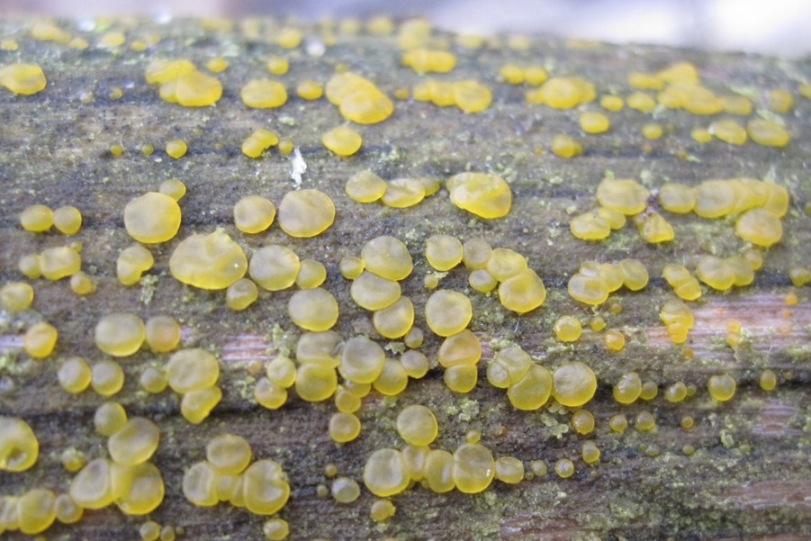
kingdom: Fungi
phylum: Basidiomycota
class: Dacrymycetes
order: Dacrymycetales
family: Dacrymycetaceae
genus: Dacrymyces
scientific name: Dacrymyces lacrymalis
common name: rynket tåresvamp
